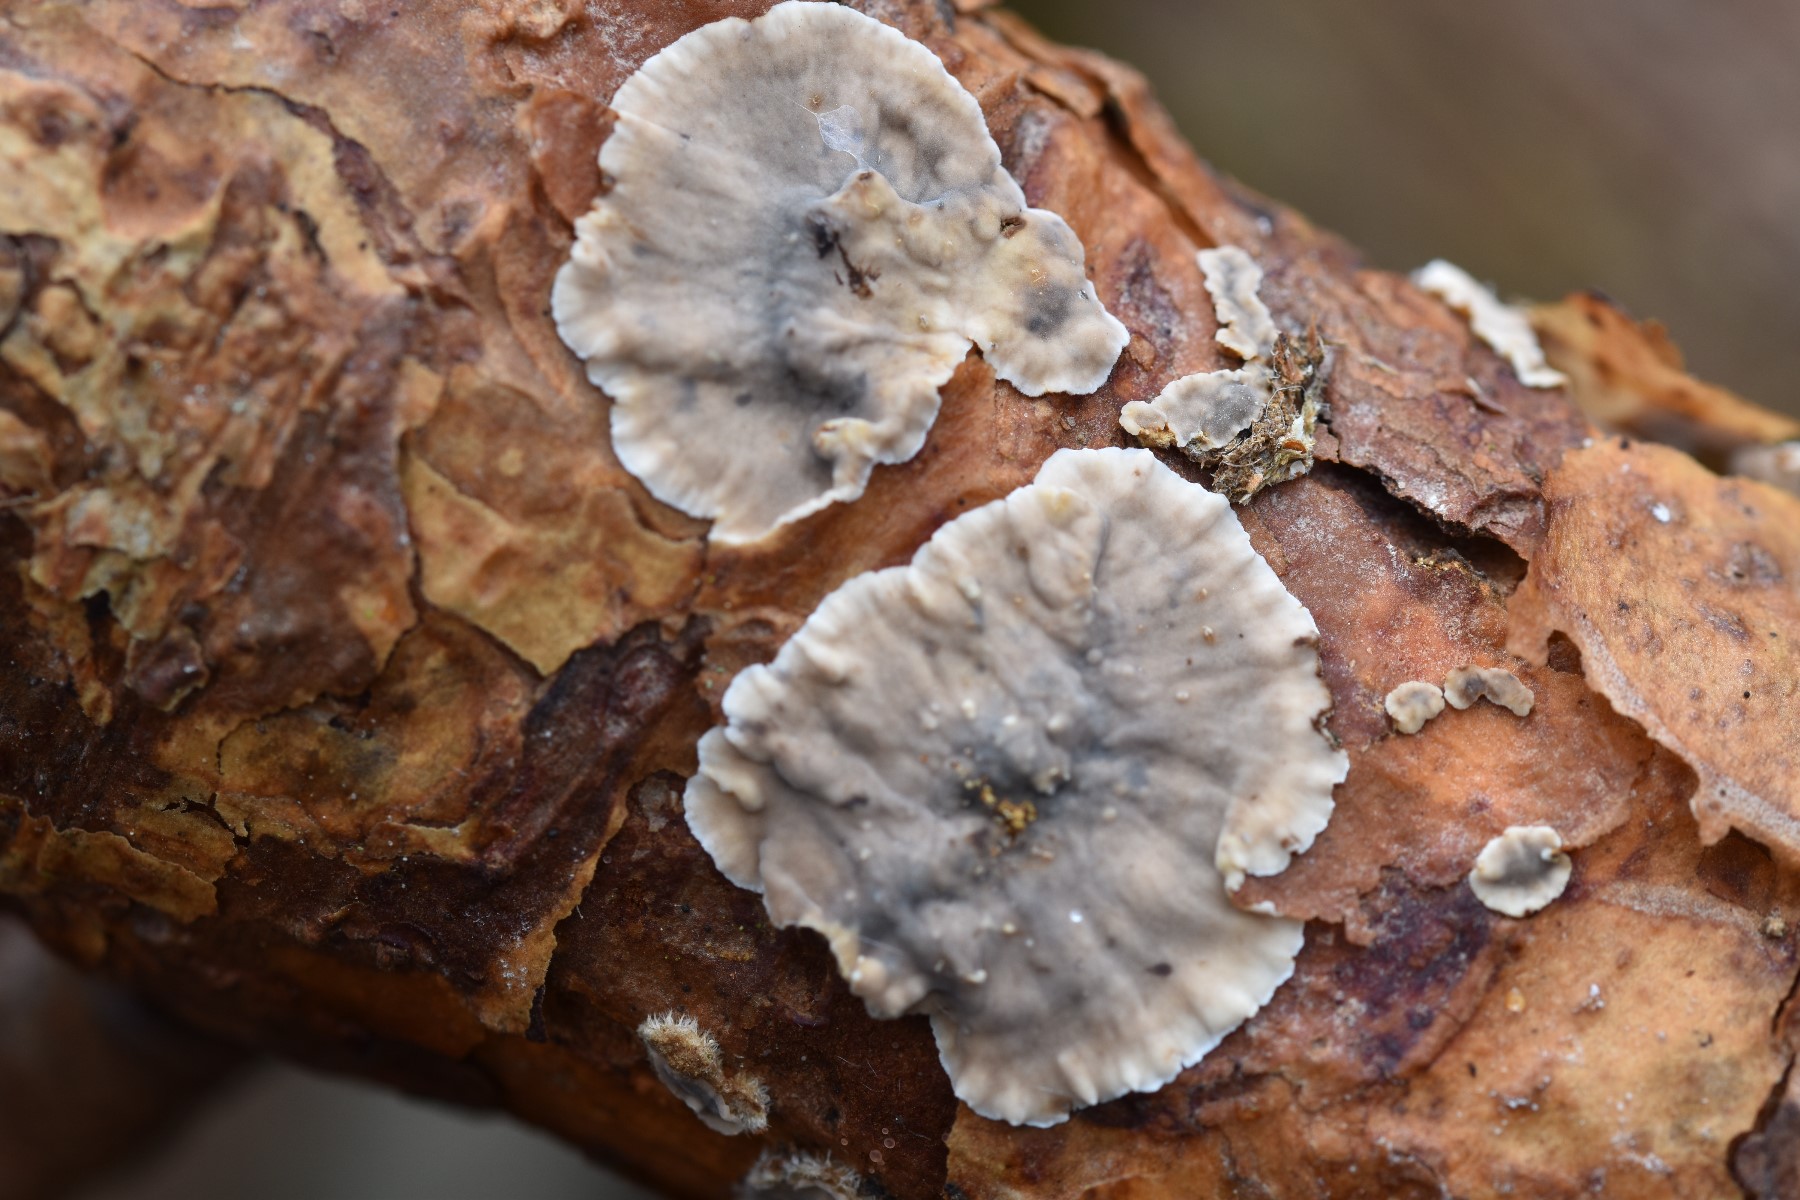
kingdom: Fungi
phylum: Basidiomycota
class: Agaricomycetes
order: Russulales
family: Stereaceae
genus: Stereum
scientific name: Stereum sanguinolentum
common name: blødende lædersvamp
